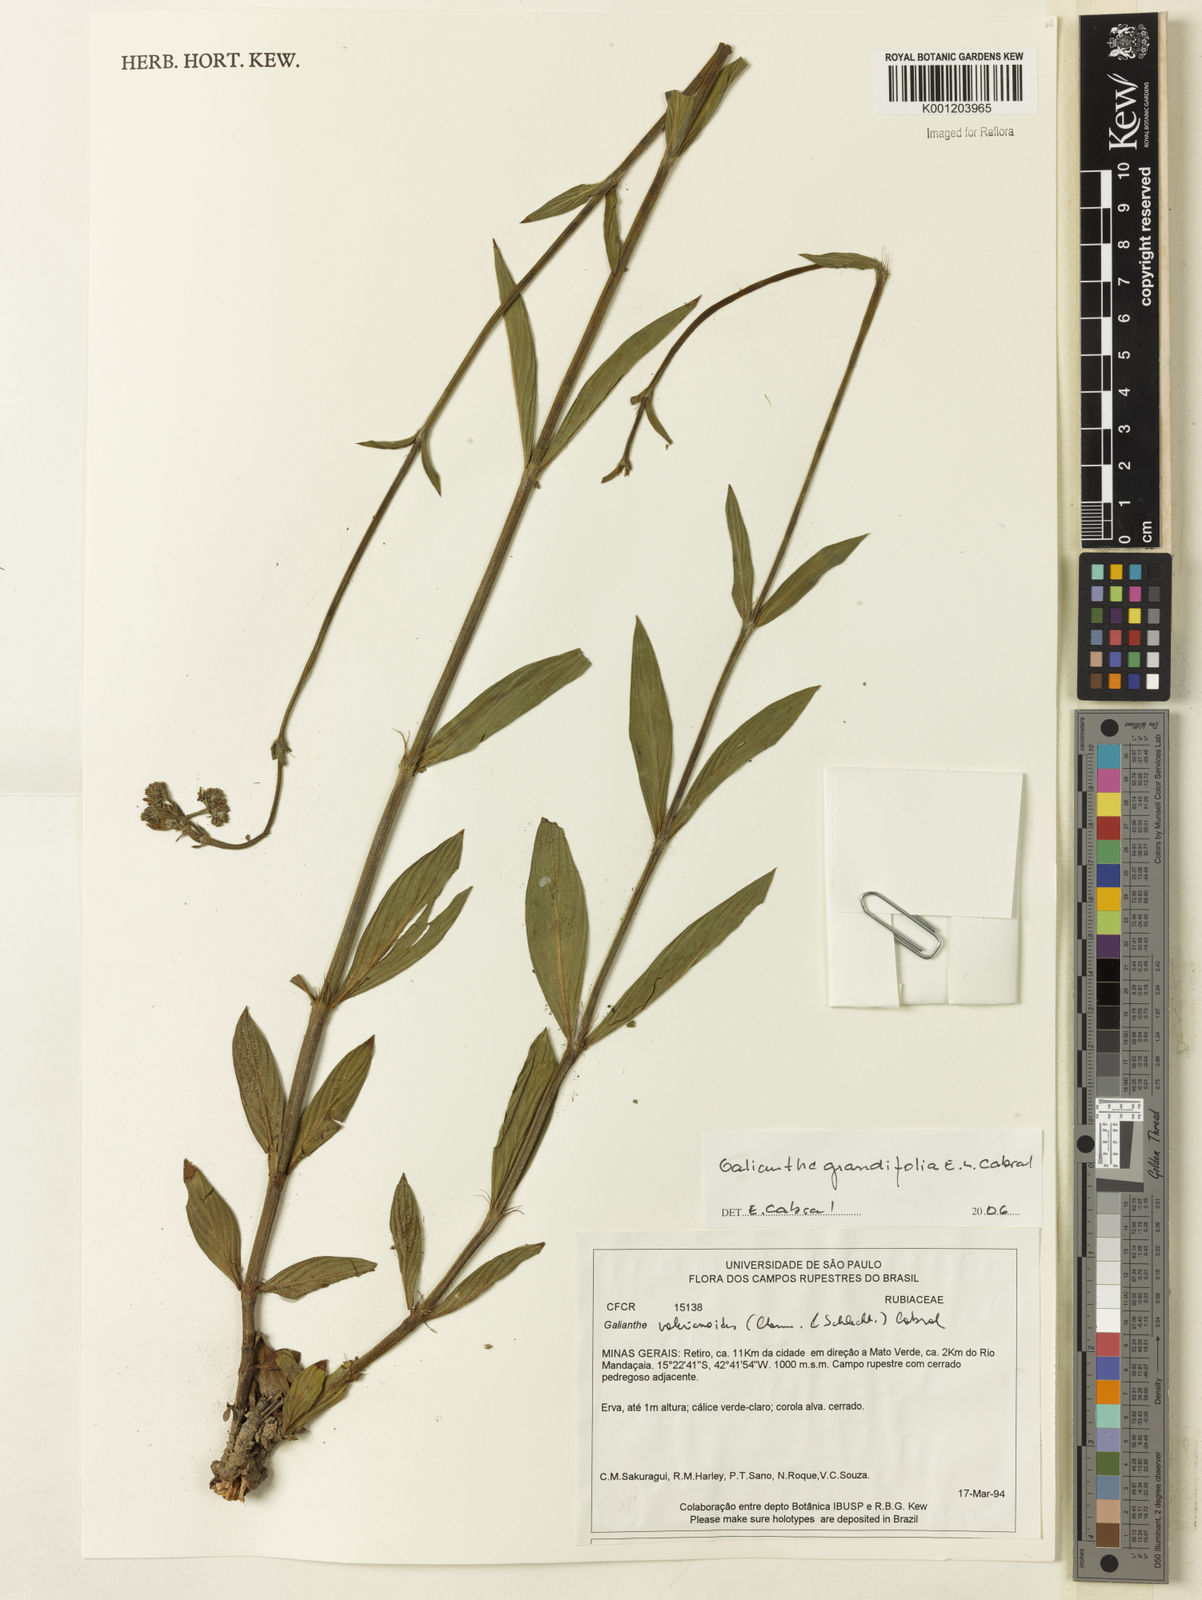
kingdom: Plantae
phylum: Tracheophyta
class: Magnoliopsida
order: Gentianales
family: Rubiaceae
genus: Galianthe
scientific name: Galianthe grandifolia
